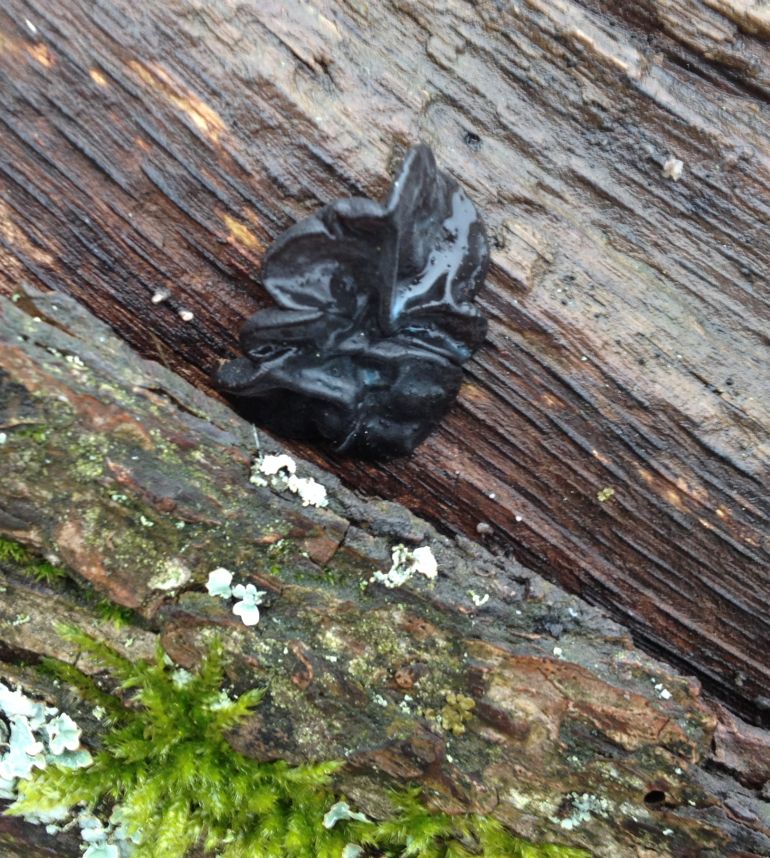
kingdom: Fungi
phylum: Basidiomycota
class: Agaricomycetes
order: Auriculariales
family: Auriculariaceae
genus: Exidia
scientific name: Exidia glandulosa
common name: ege-bævretop
